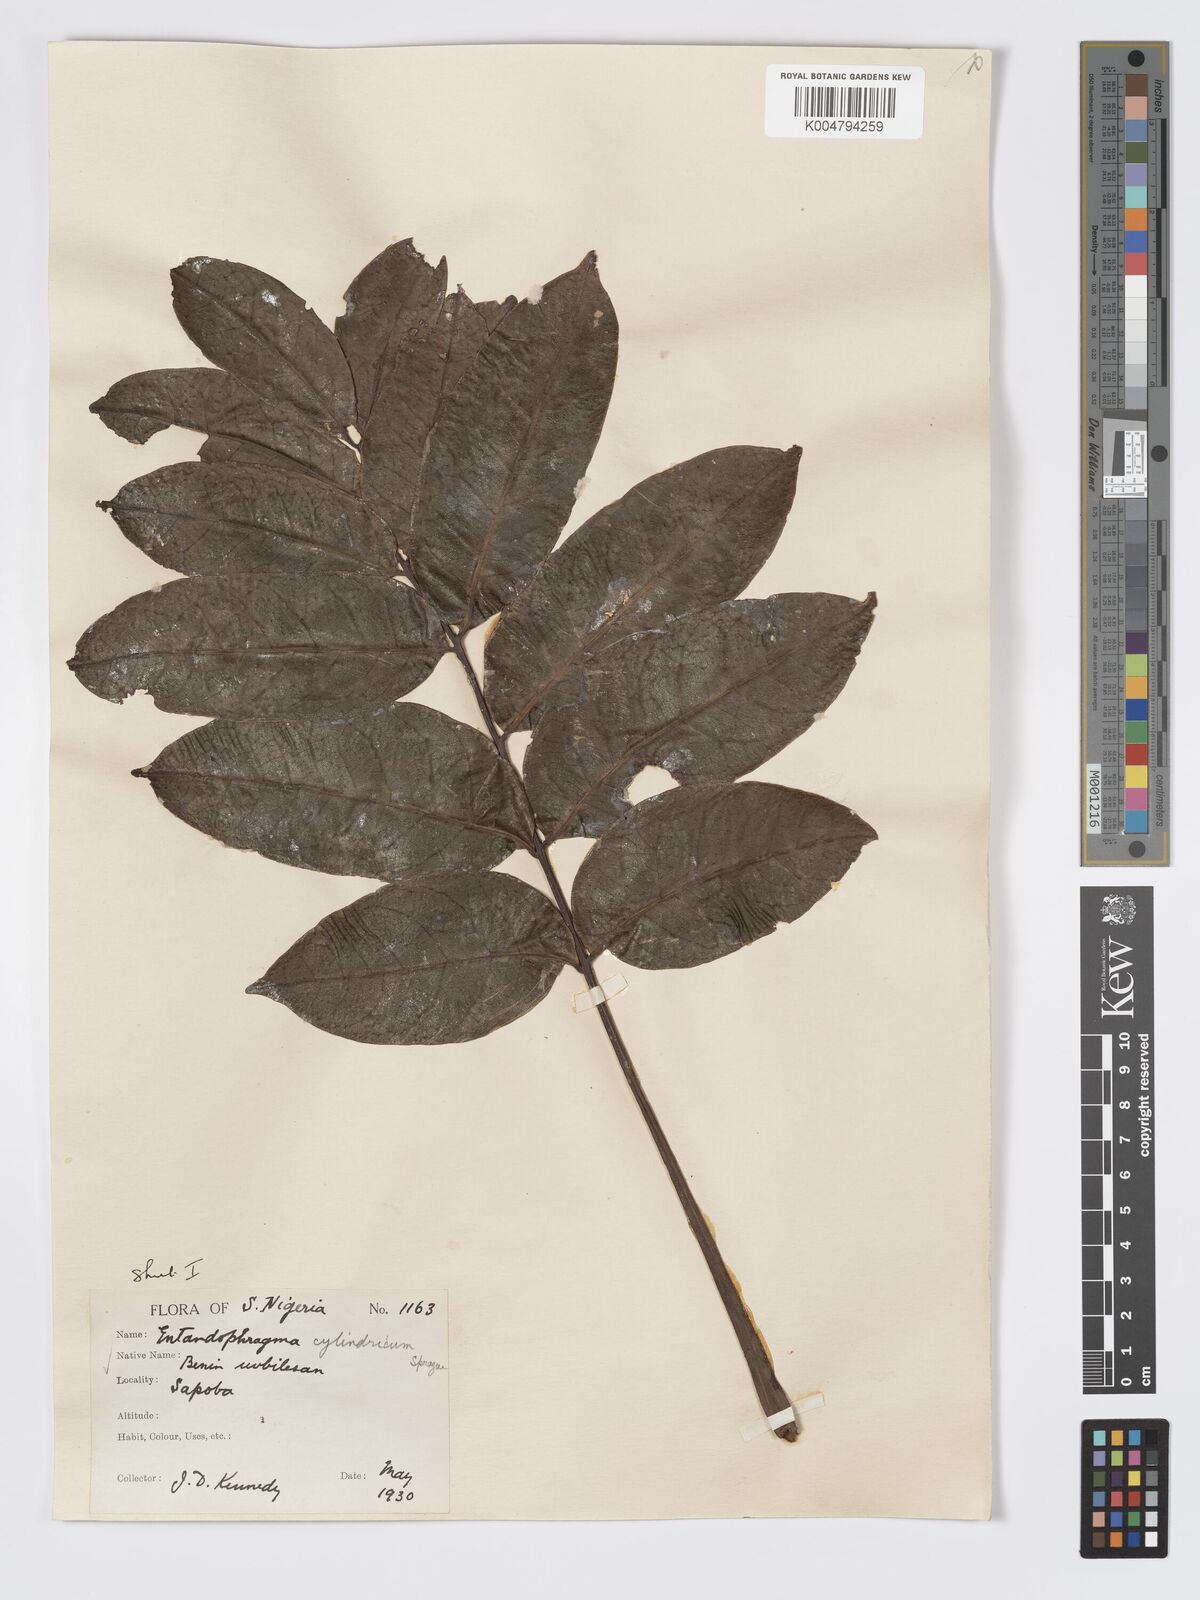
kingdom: Plantae
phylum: Tracheophyta
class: Magnoliopsida
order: Sapindales
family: Meliaceae
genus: Entandrophragma
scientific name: Entandrophragma cylindricum
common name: Sapele
